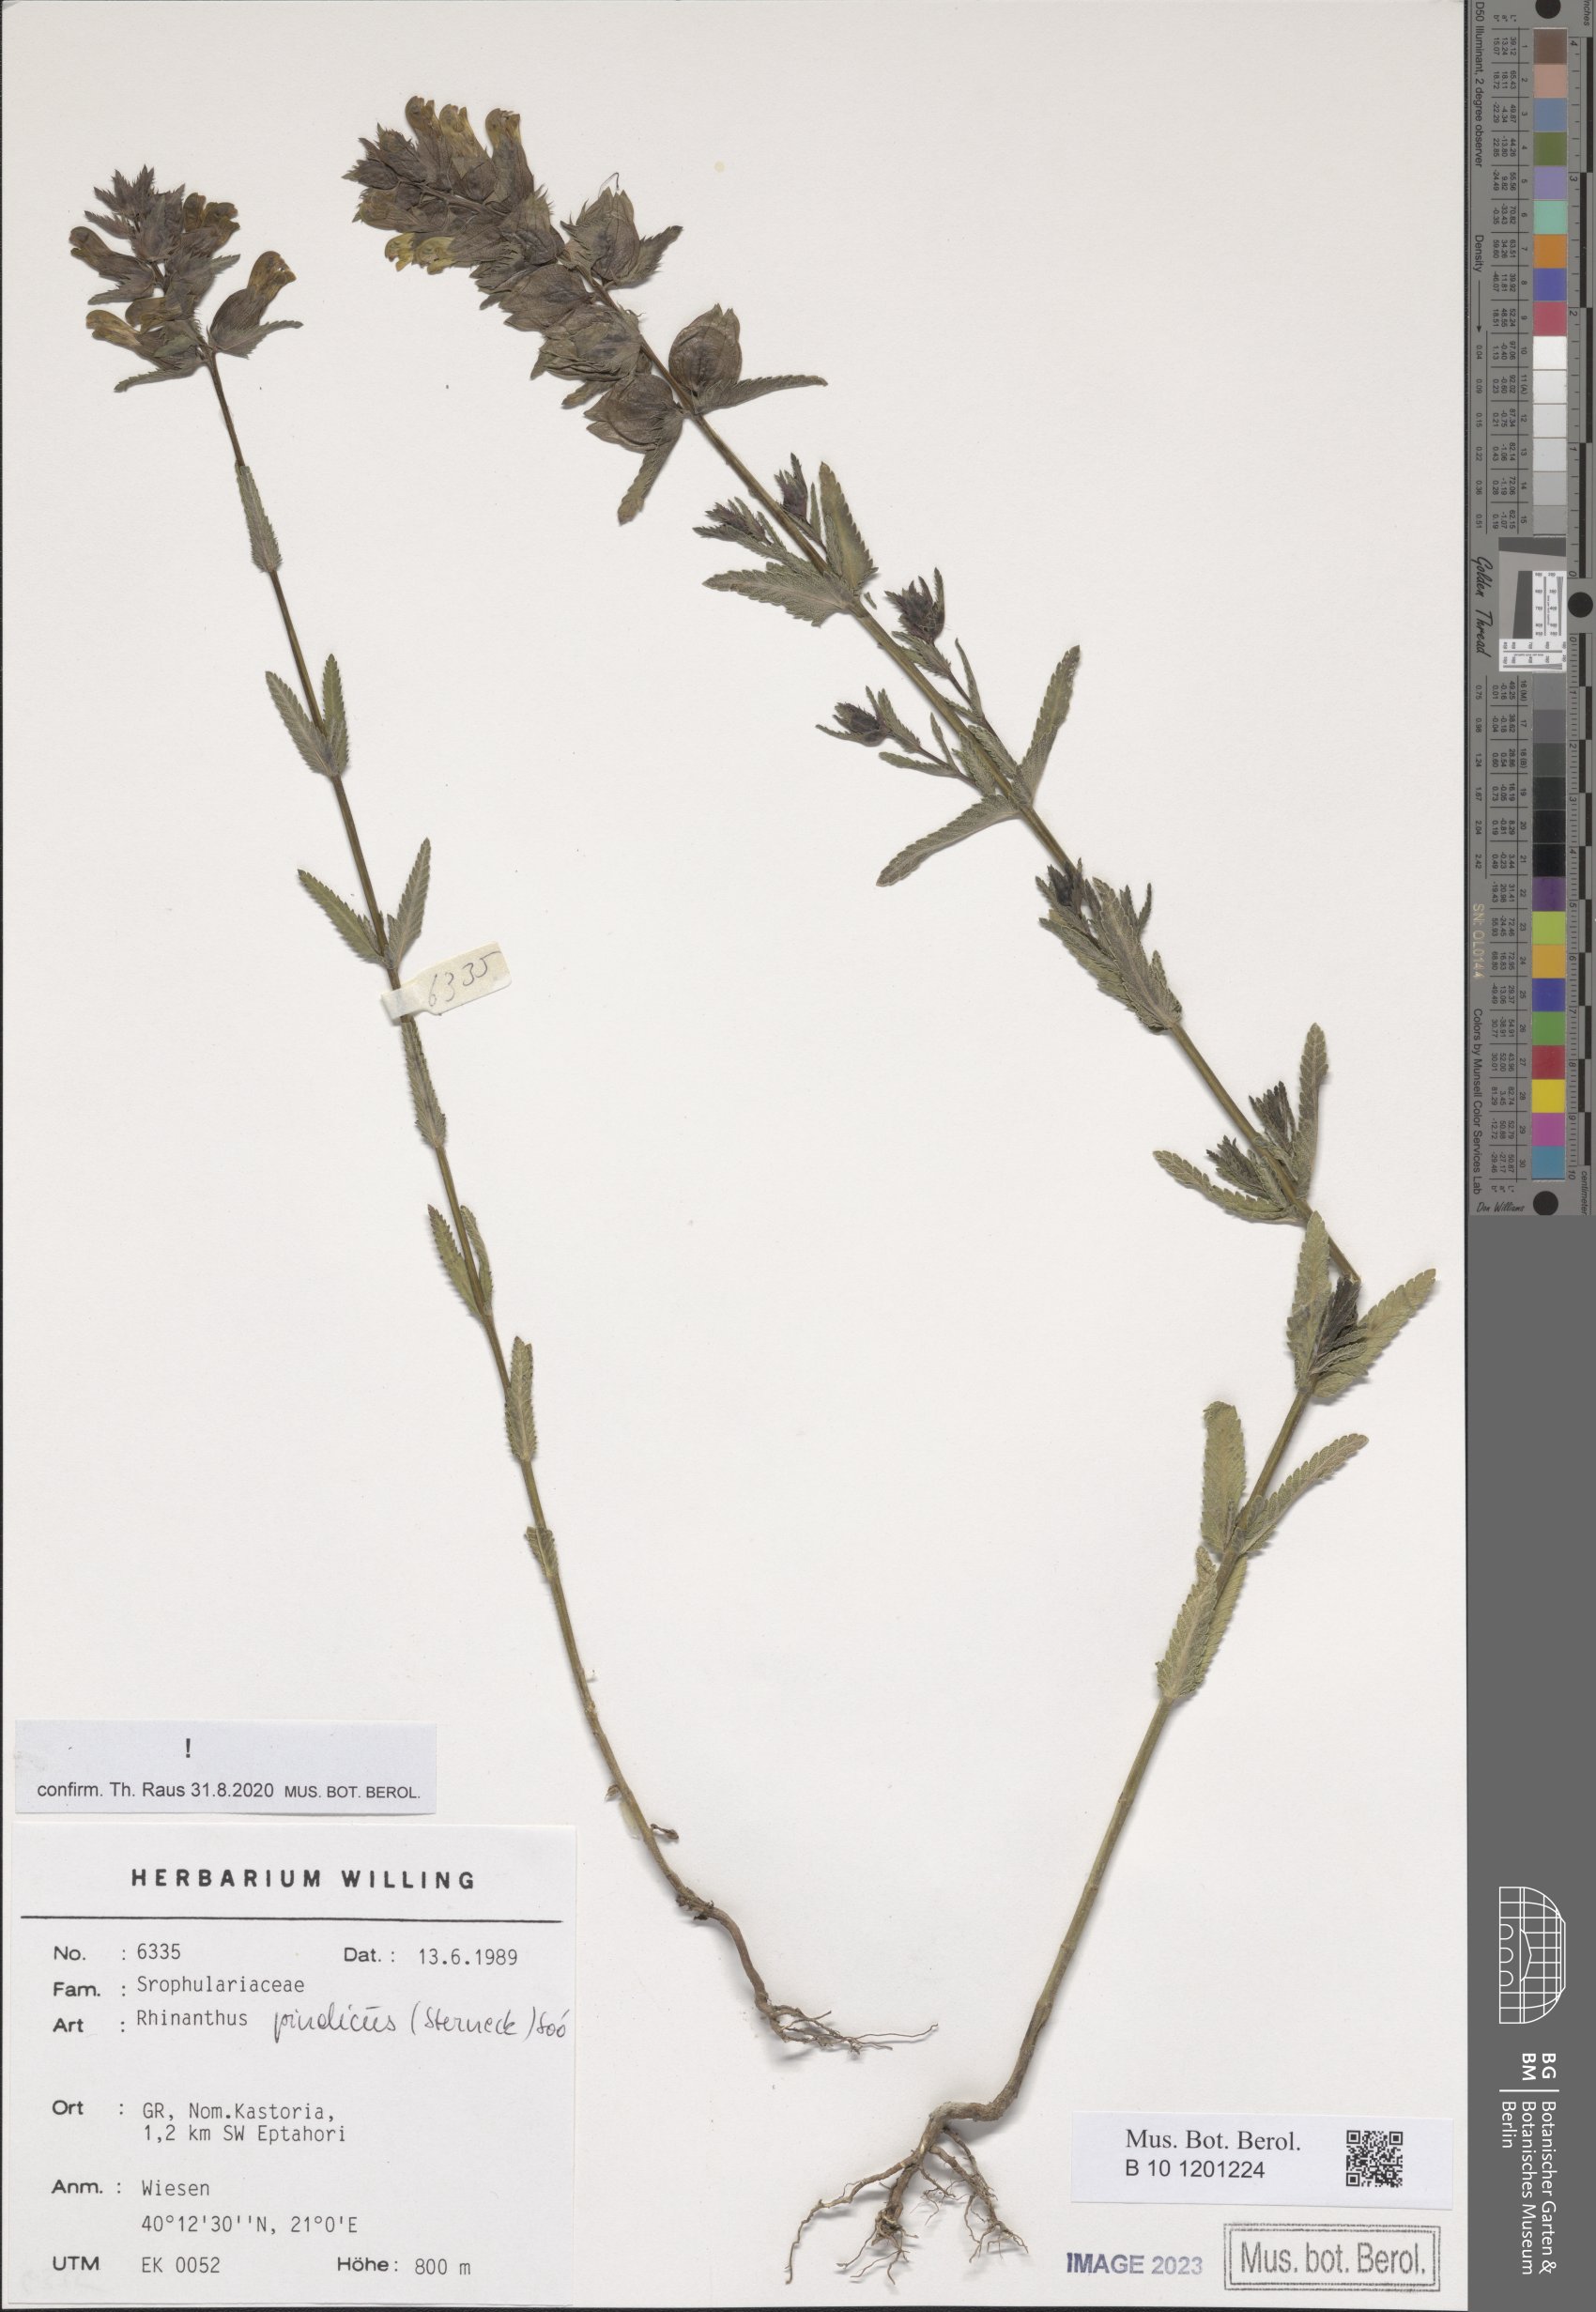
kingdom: Plantae
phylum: Tracheophyta
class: Magnoliopsida
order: Lamiales
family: Orobanchaceae
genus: Rhinanthus
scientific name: Rhinanthus pindicus
